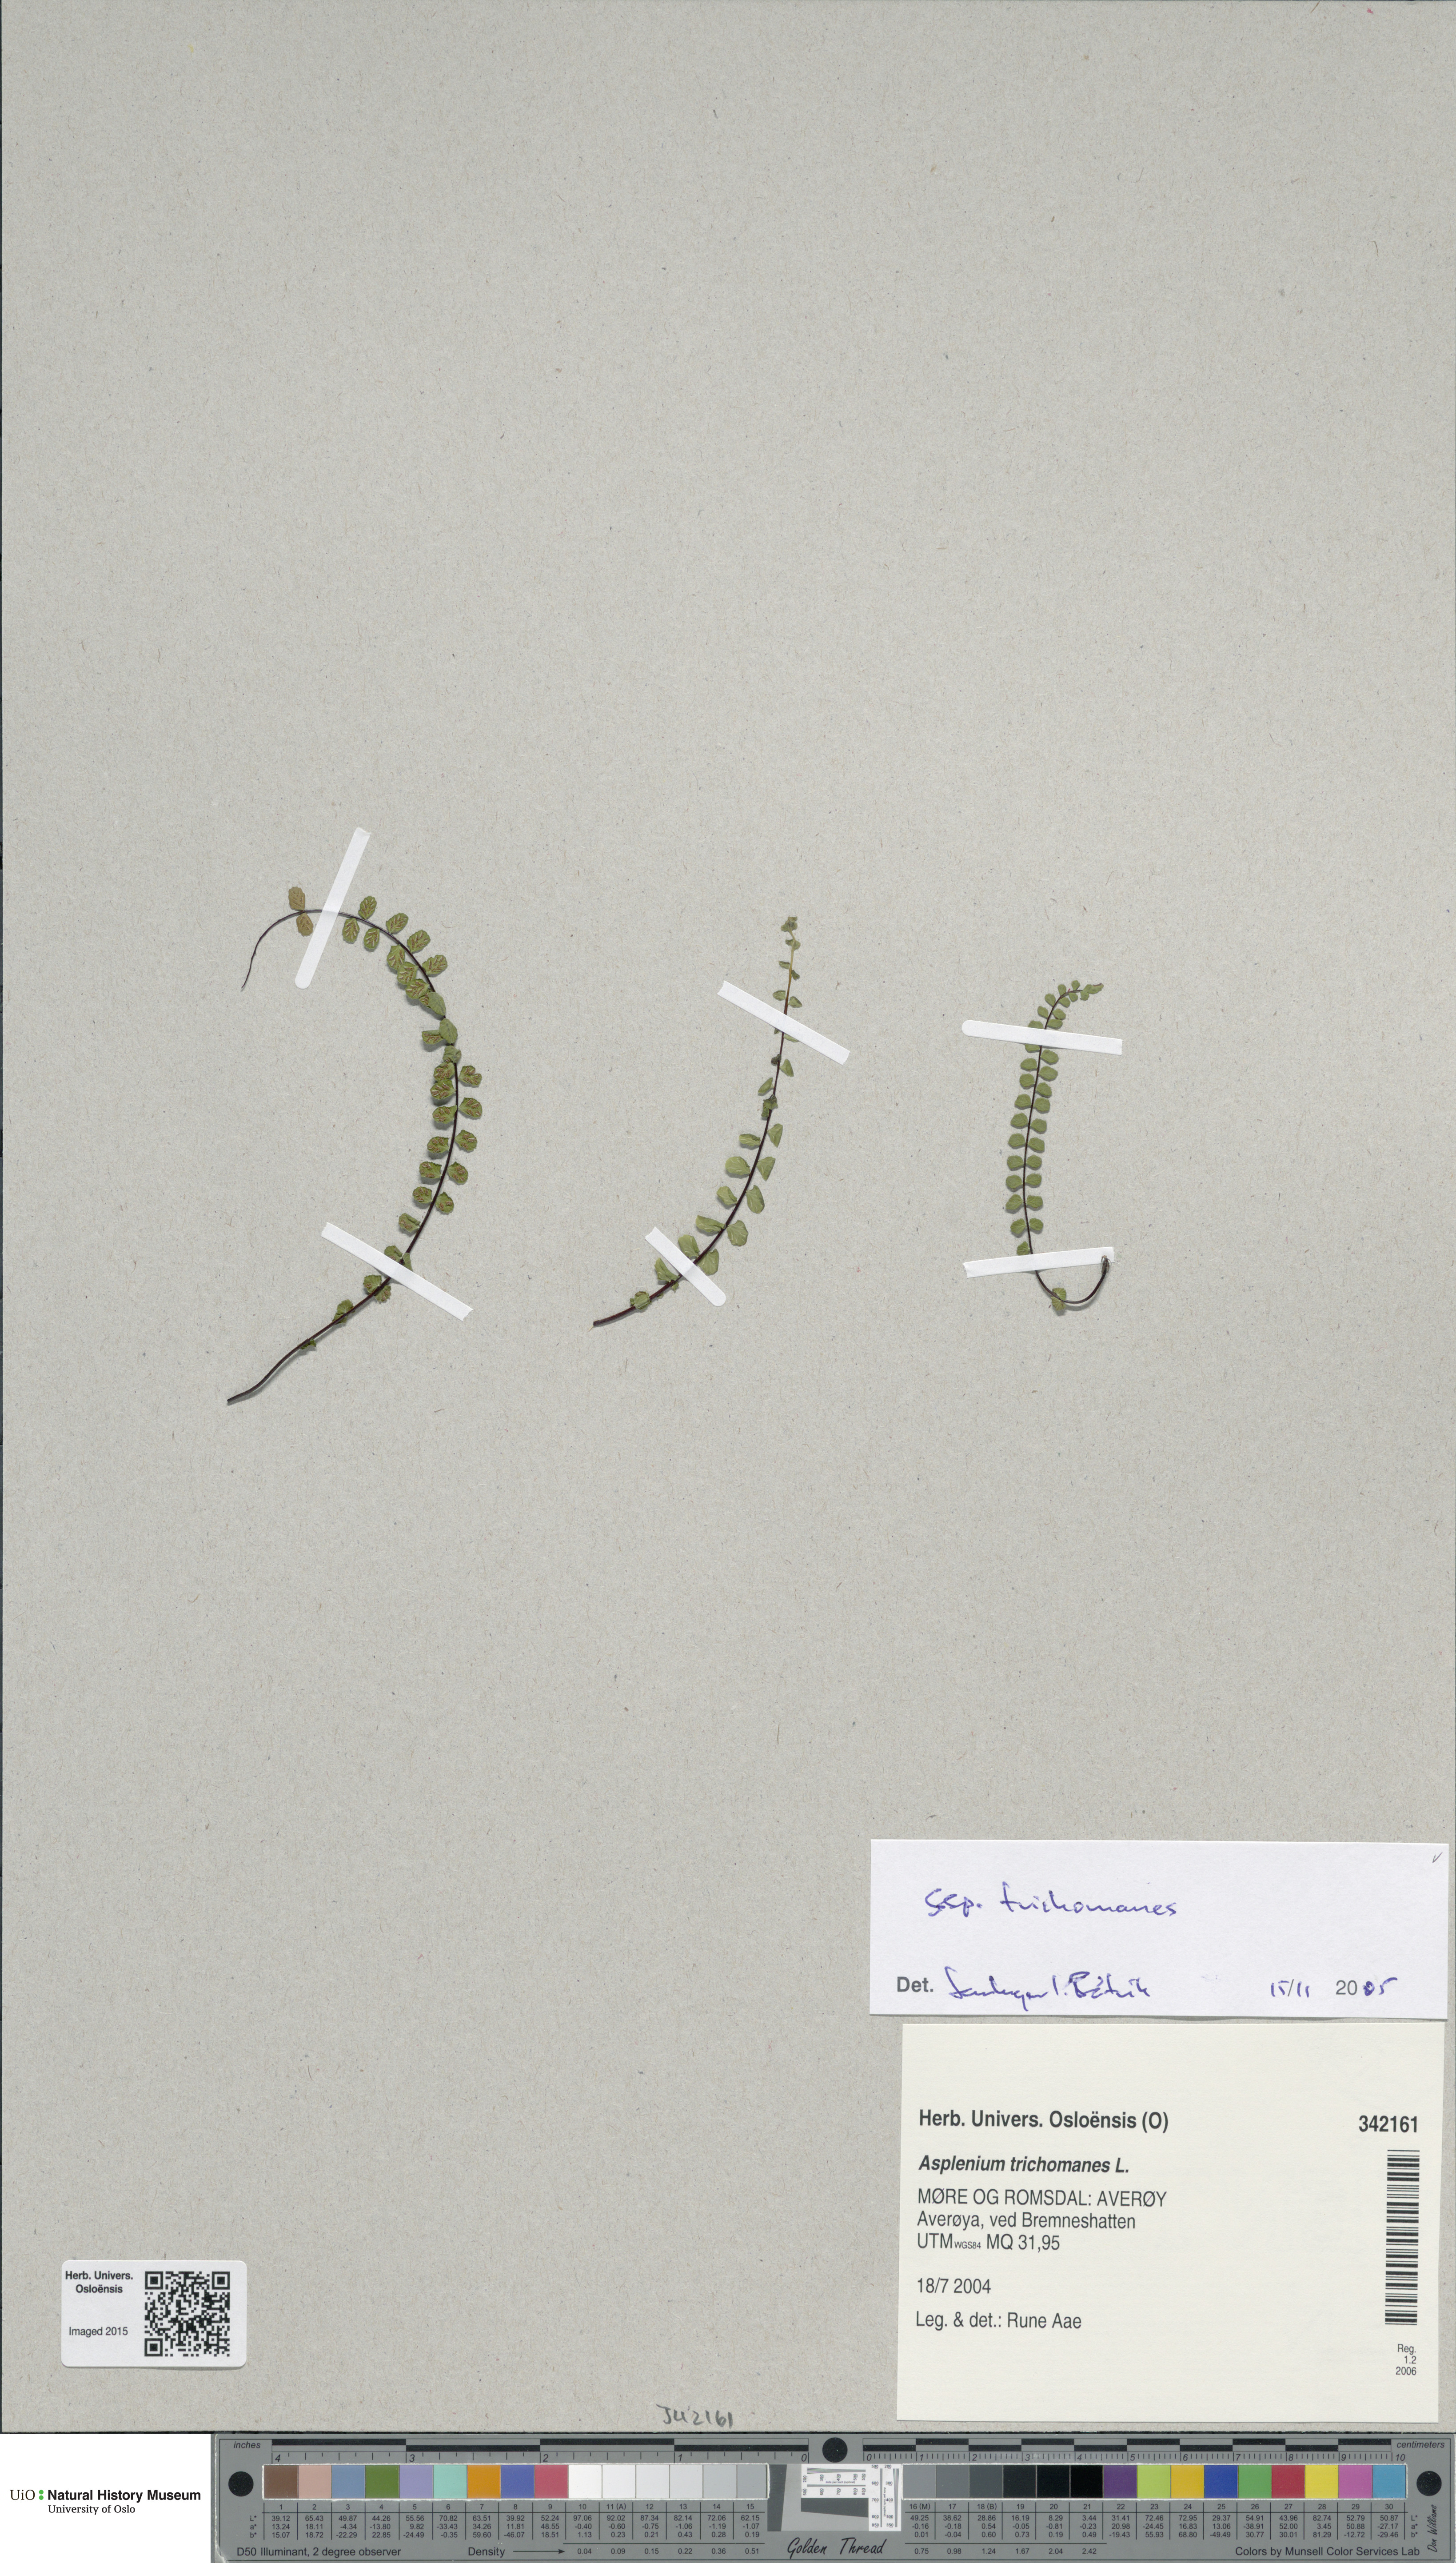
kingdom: Plantae
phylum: Tracheophyta
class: Polypodiopsida
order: Polypodiales
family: Aspleniaceae
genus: Asplenium
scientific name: Asplenium trichomanes
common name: Maidenhair spleenwort
